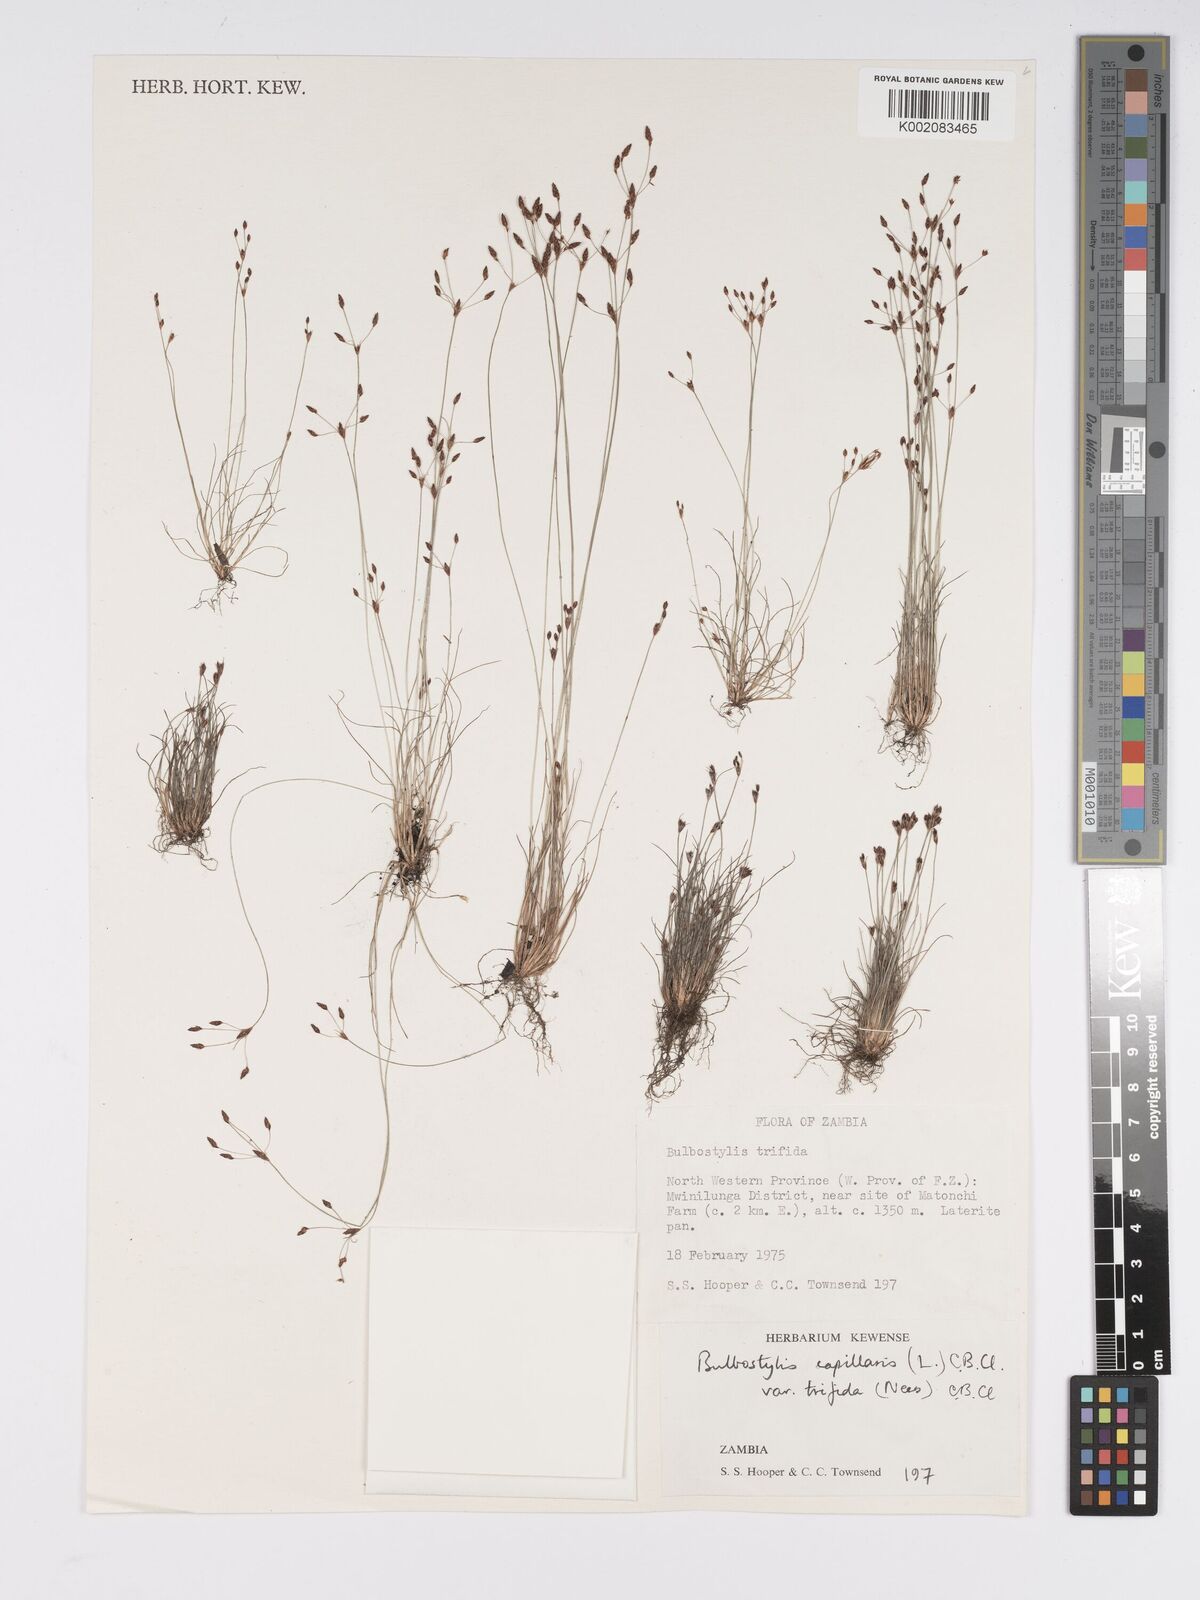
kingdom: Plantae
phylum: Tracheophyta
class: Liliopsida
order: Poales
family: Cyperaceae
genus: Bulbostylis
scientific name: Bulbostylis capillaris
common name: Densetuft hairsedge
